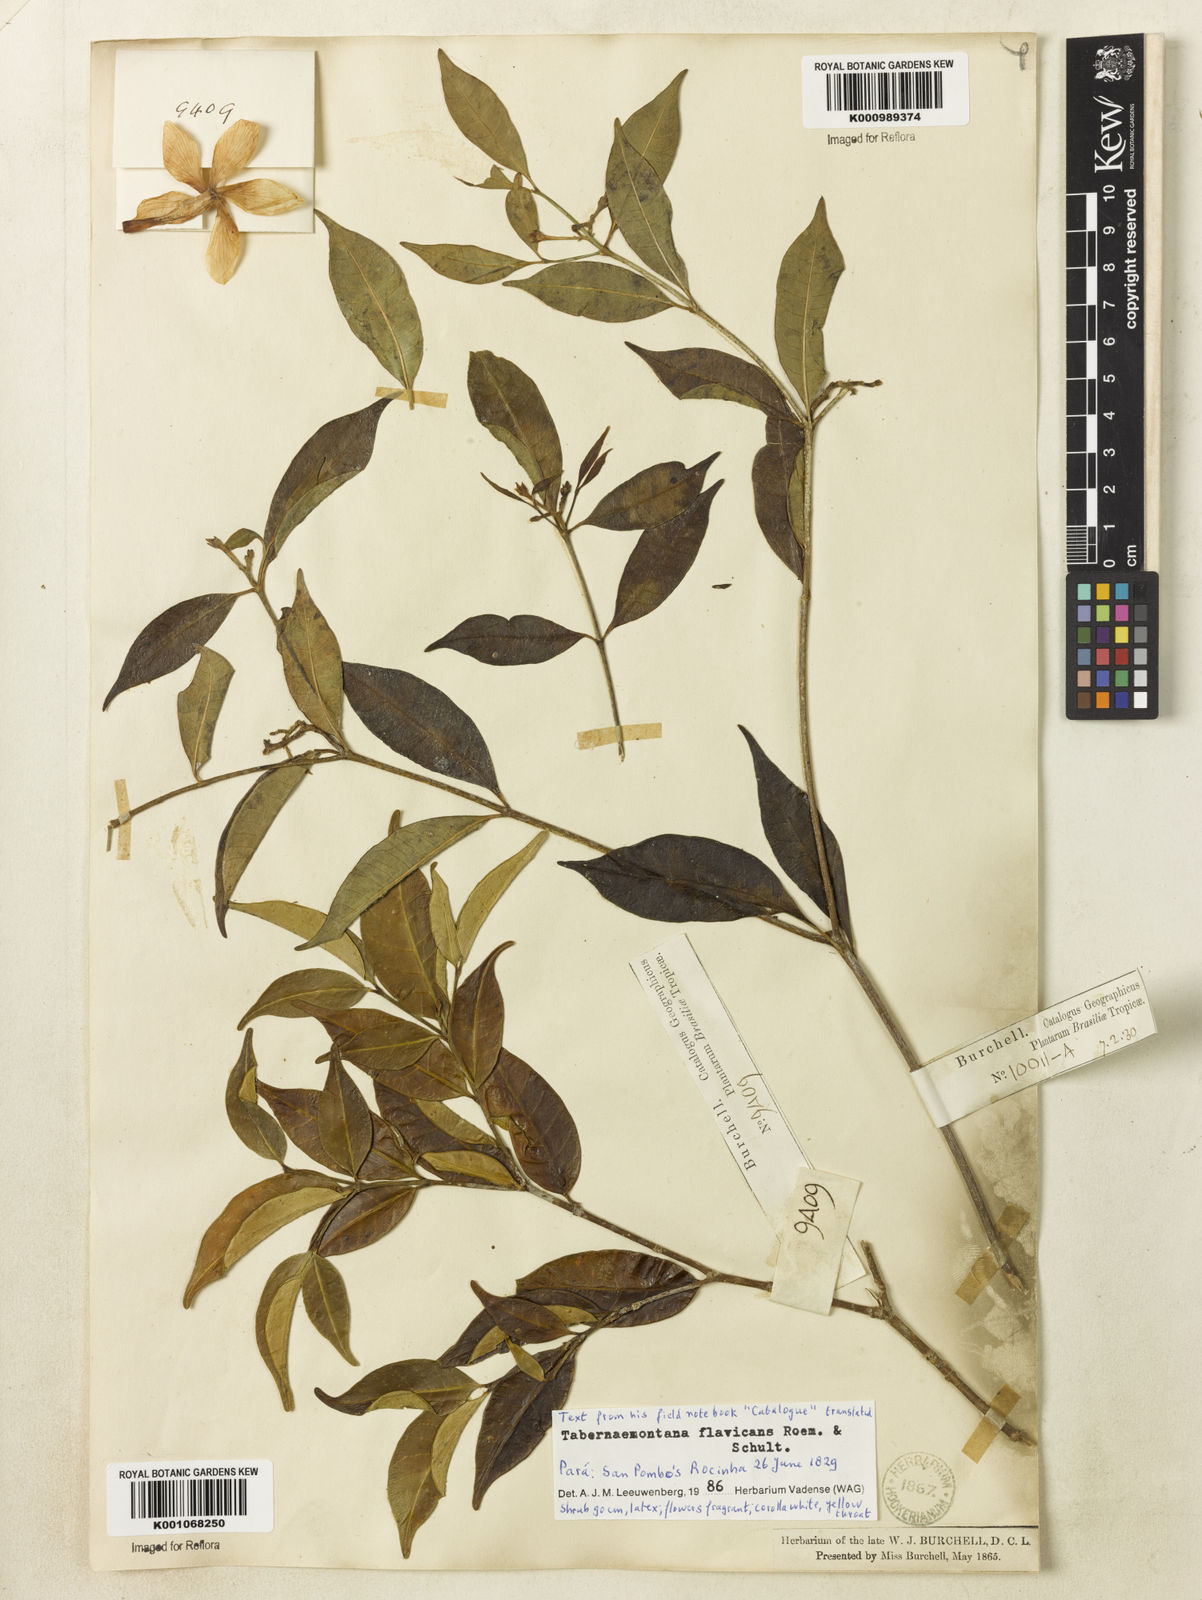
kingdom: Plantae
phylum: Tracheophyta
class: Magnoliopsida
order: Gentianales
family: Apocynaceae
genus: Tabernaemontana
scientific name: Tabernaemontana flavicans
